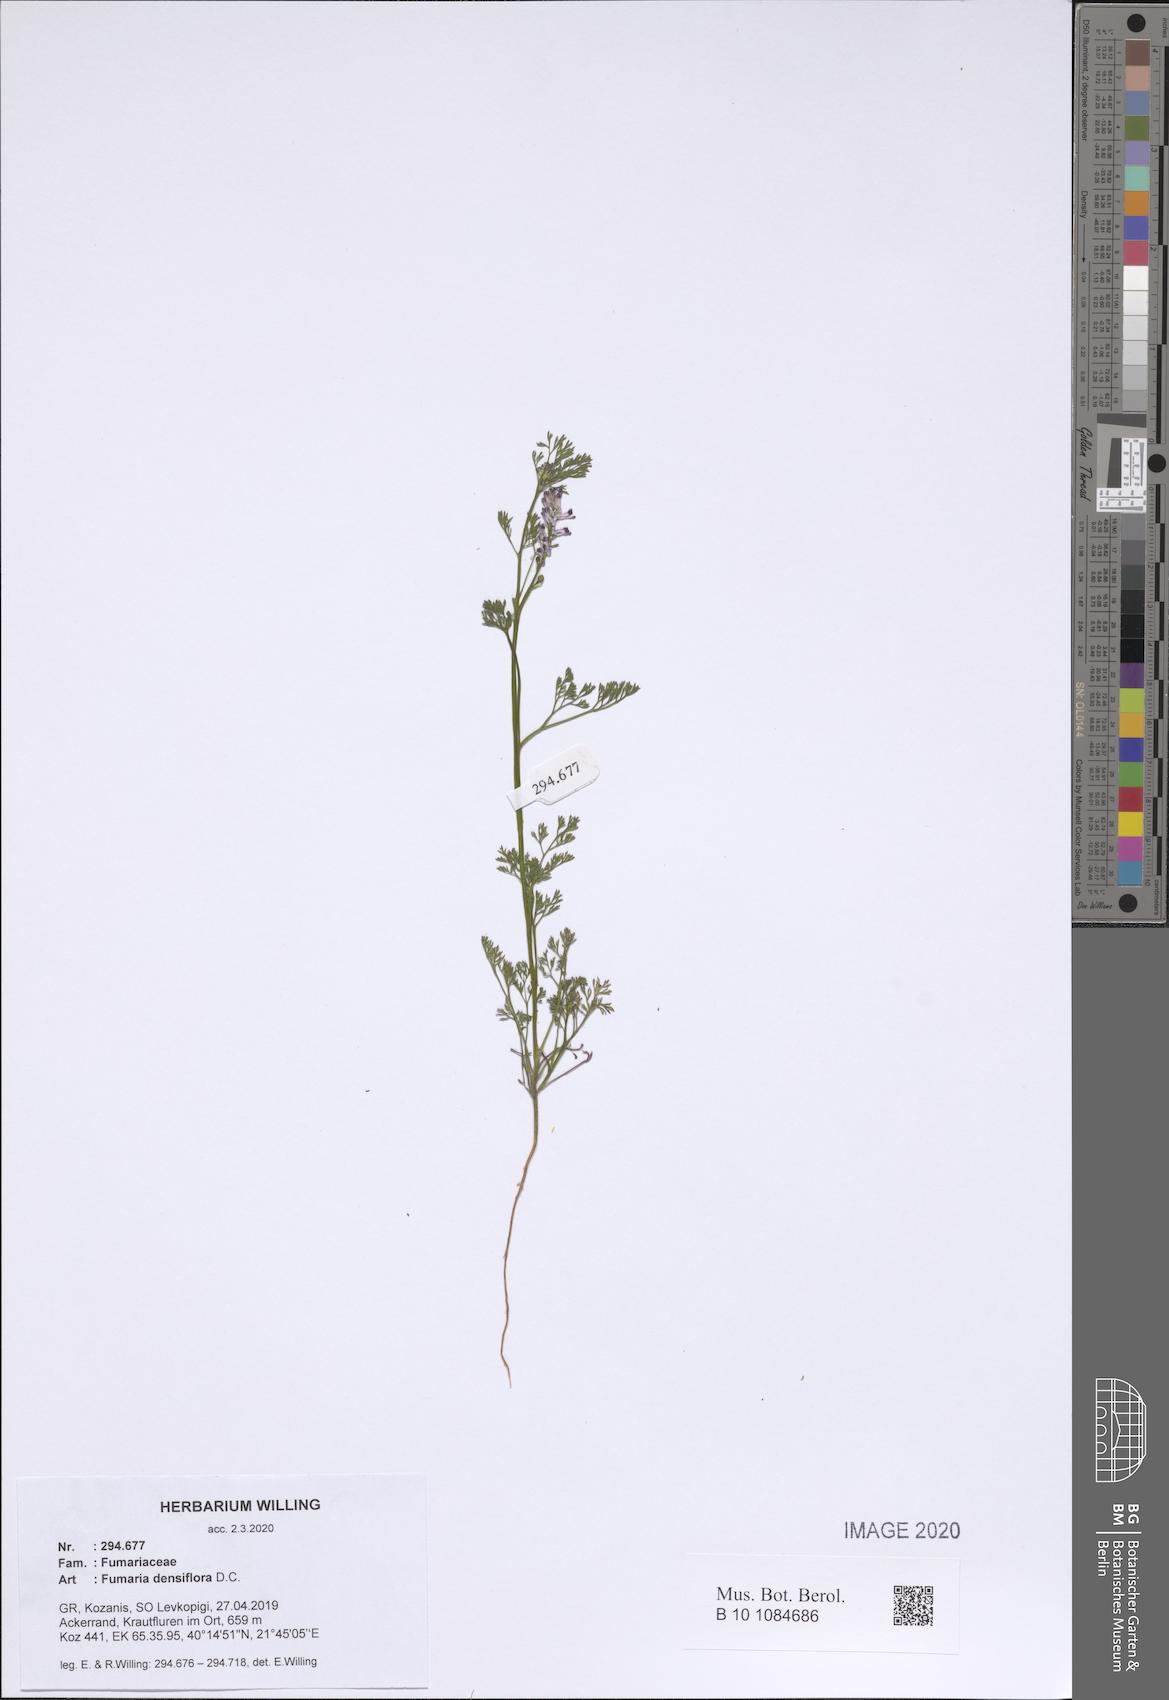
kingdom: Plantae
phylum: Tracheophyta
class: Magnoliopsida
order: Ranunculales
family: Papaveraceae
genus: Fumaria
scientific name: Fumaria densiflora
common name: Dense-flowered fumitory
